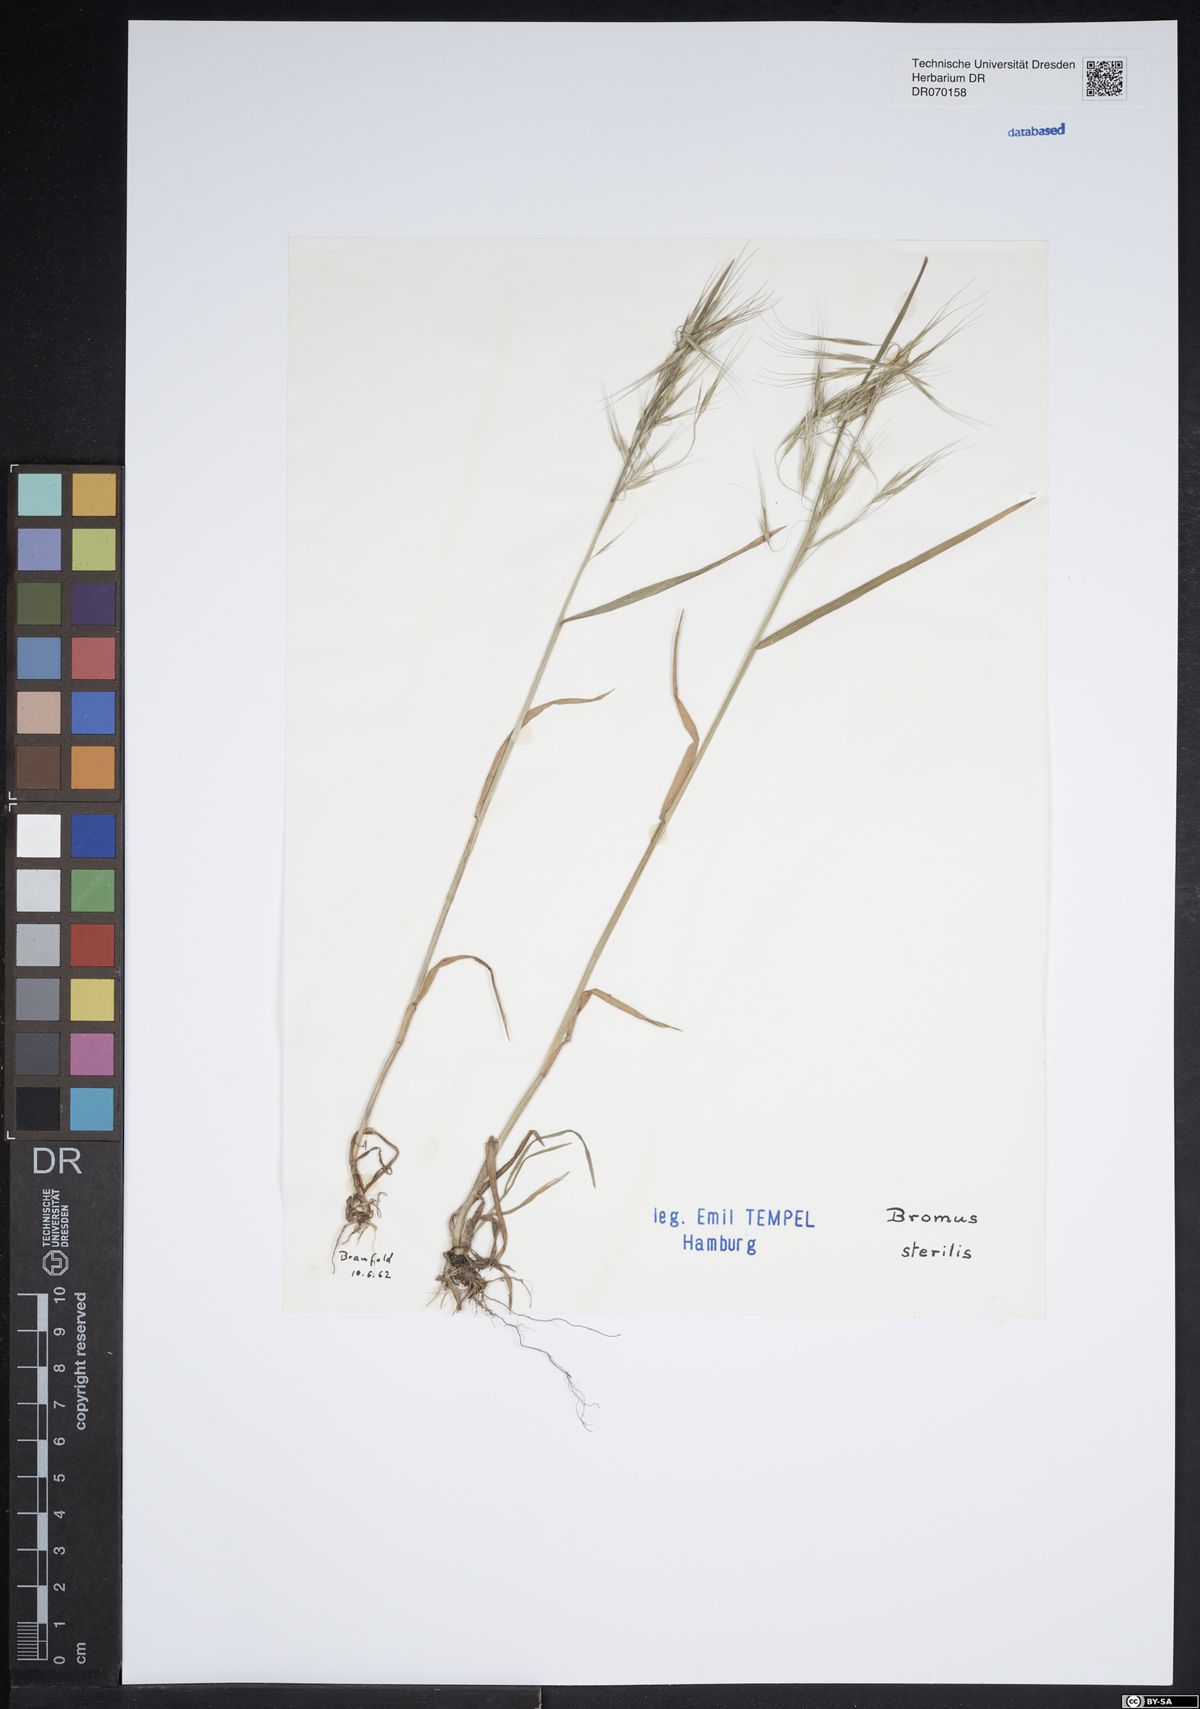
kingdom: Plantae
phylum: Tracheophyta
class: Liliopsida
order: Poales
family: Poaceae
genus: Bromus
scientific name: Bromus sterilis
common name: Poverty brome
